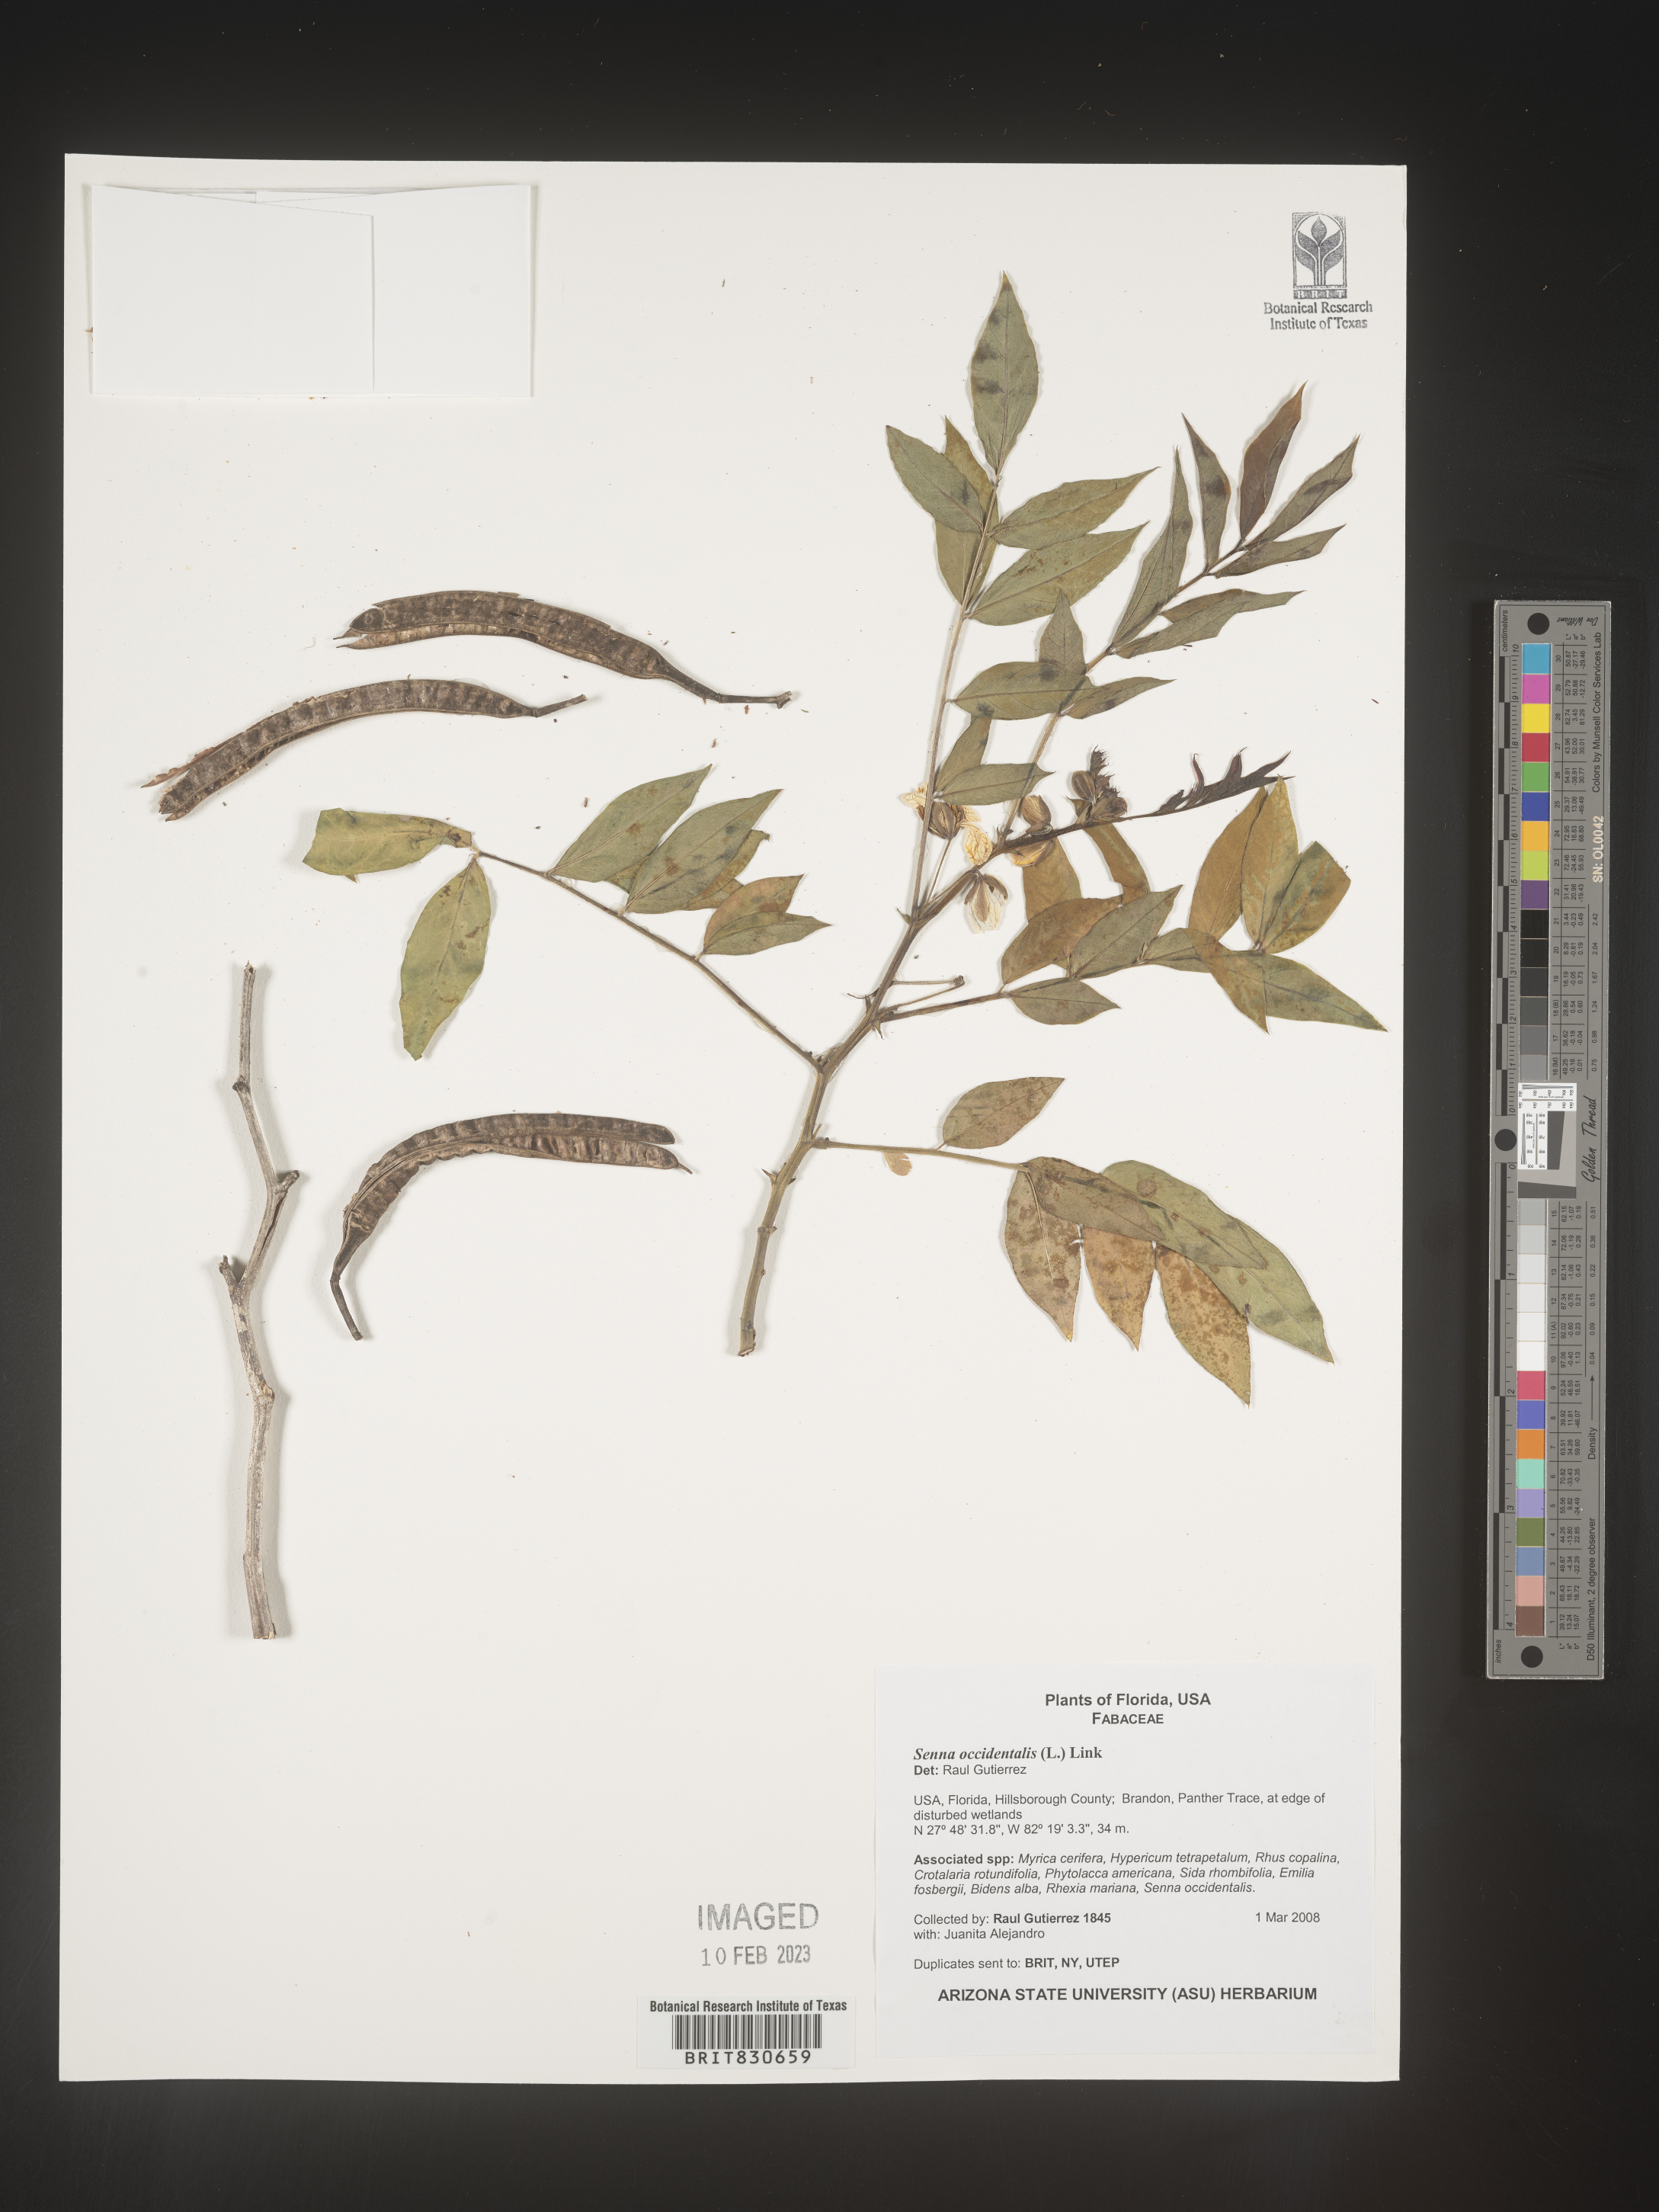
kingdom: Plantae
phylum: Tracheophyta
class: Magnoliopsida
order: Fabales
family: Fabaceae
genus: Senna
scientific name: Senna
